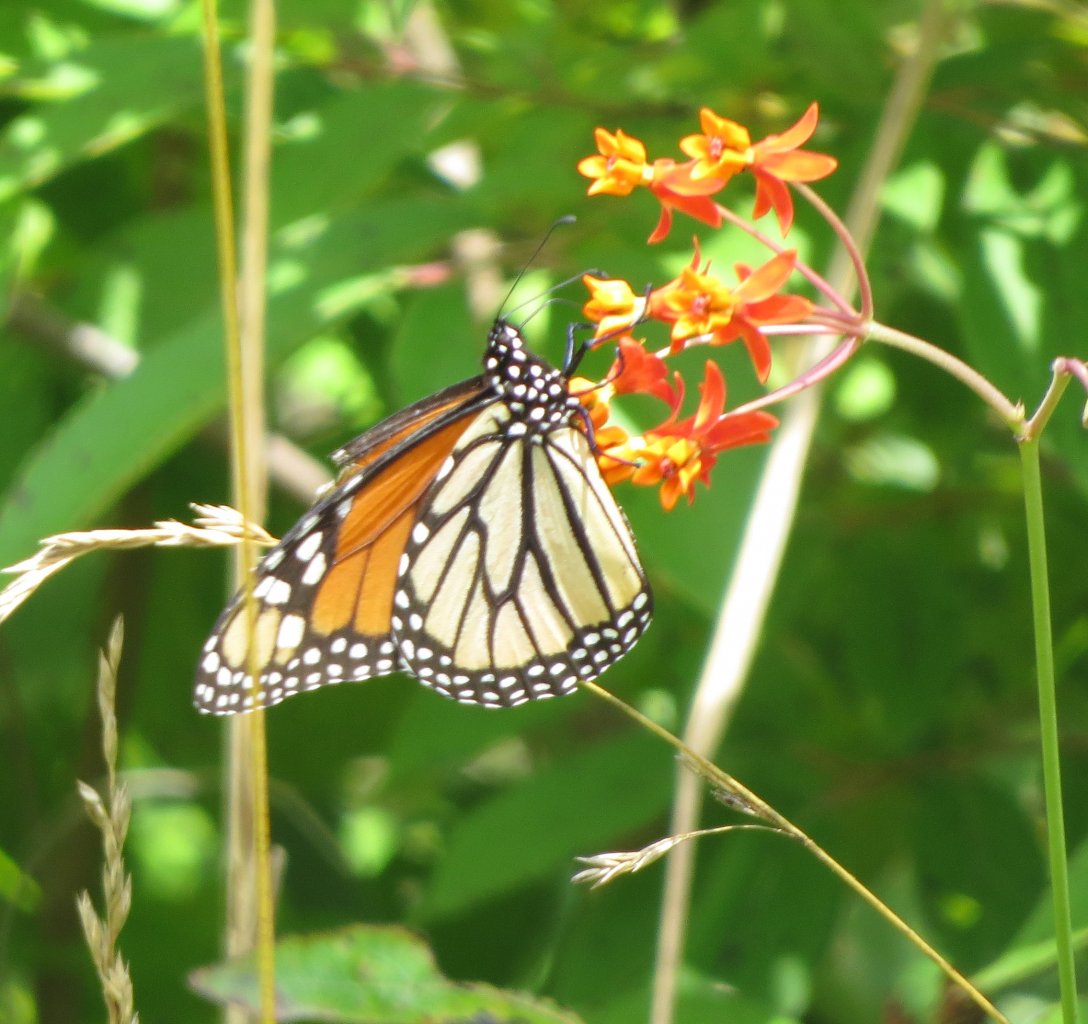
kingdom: Animalia
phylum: Arthropoda
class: Insecta
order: Lepidoptera
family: Nymphalidae
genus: Danaus
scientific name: Danaus plexippus
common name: Monarch
